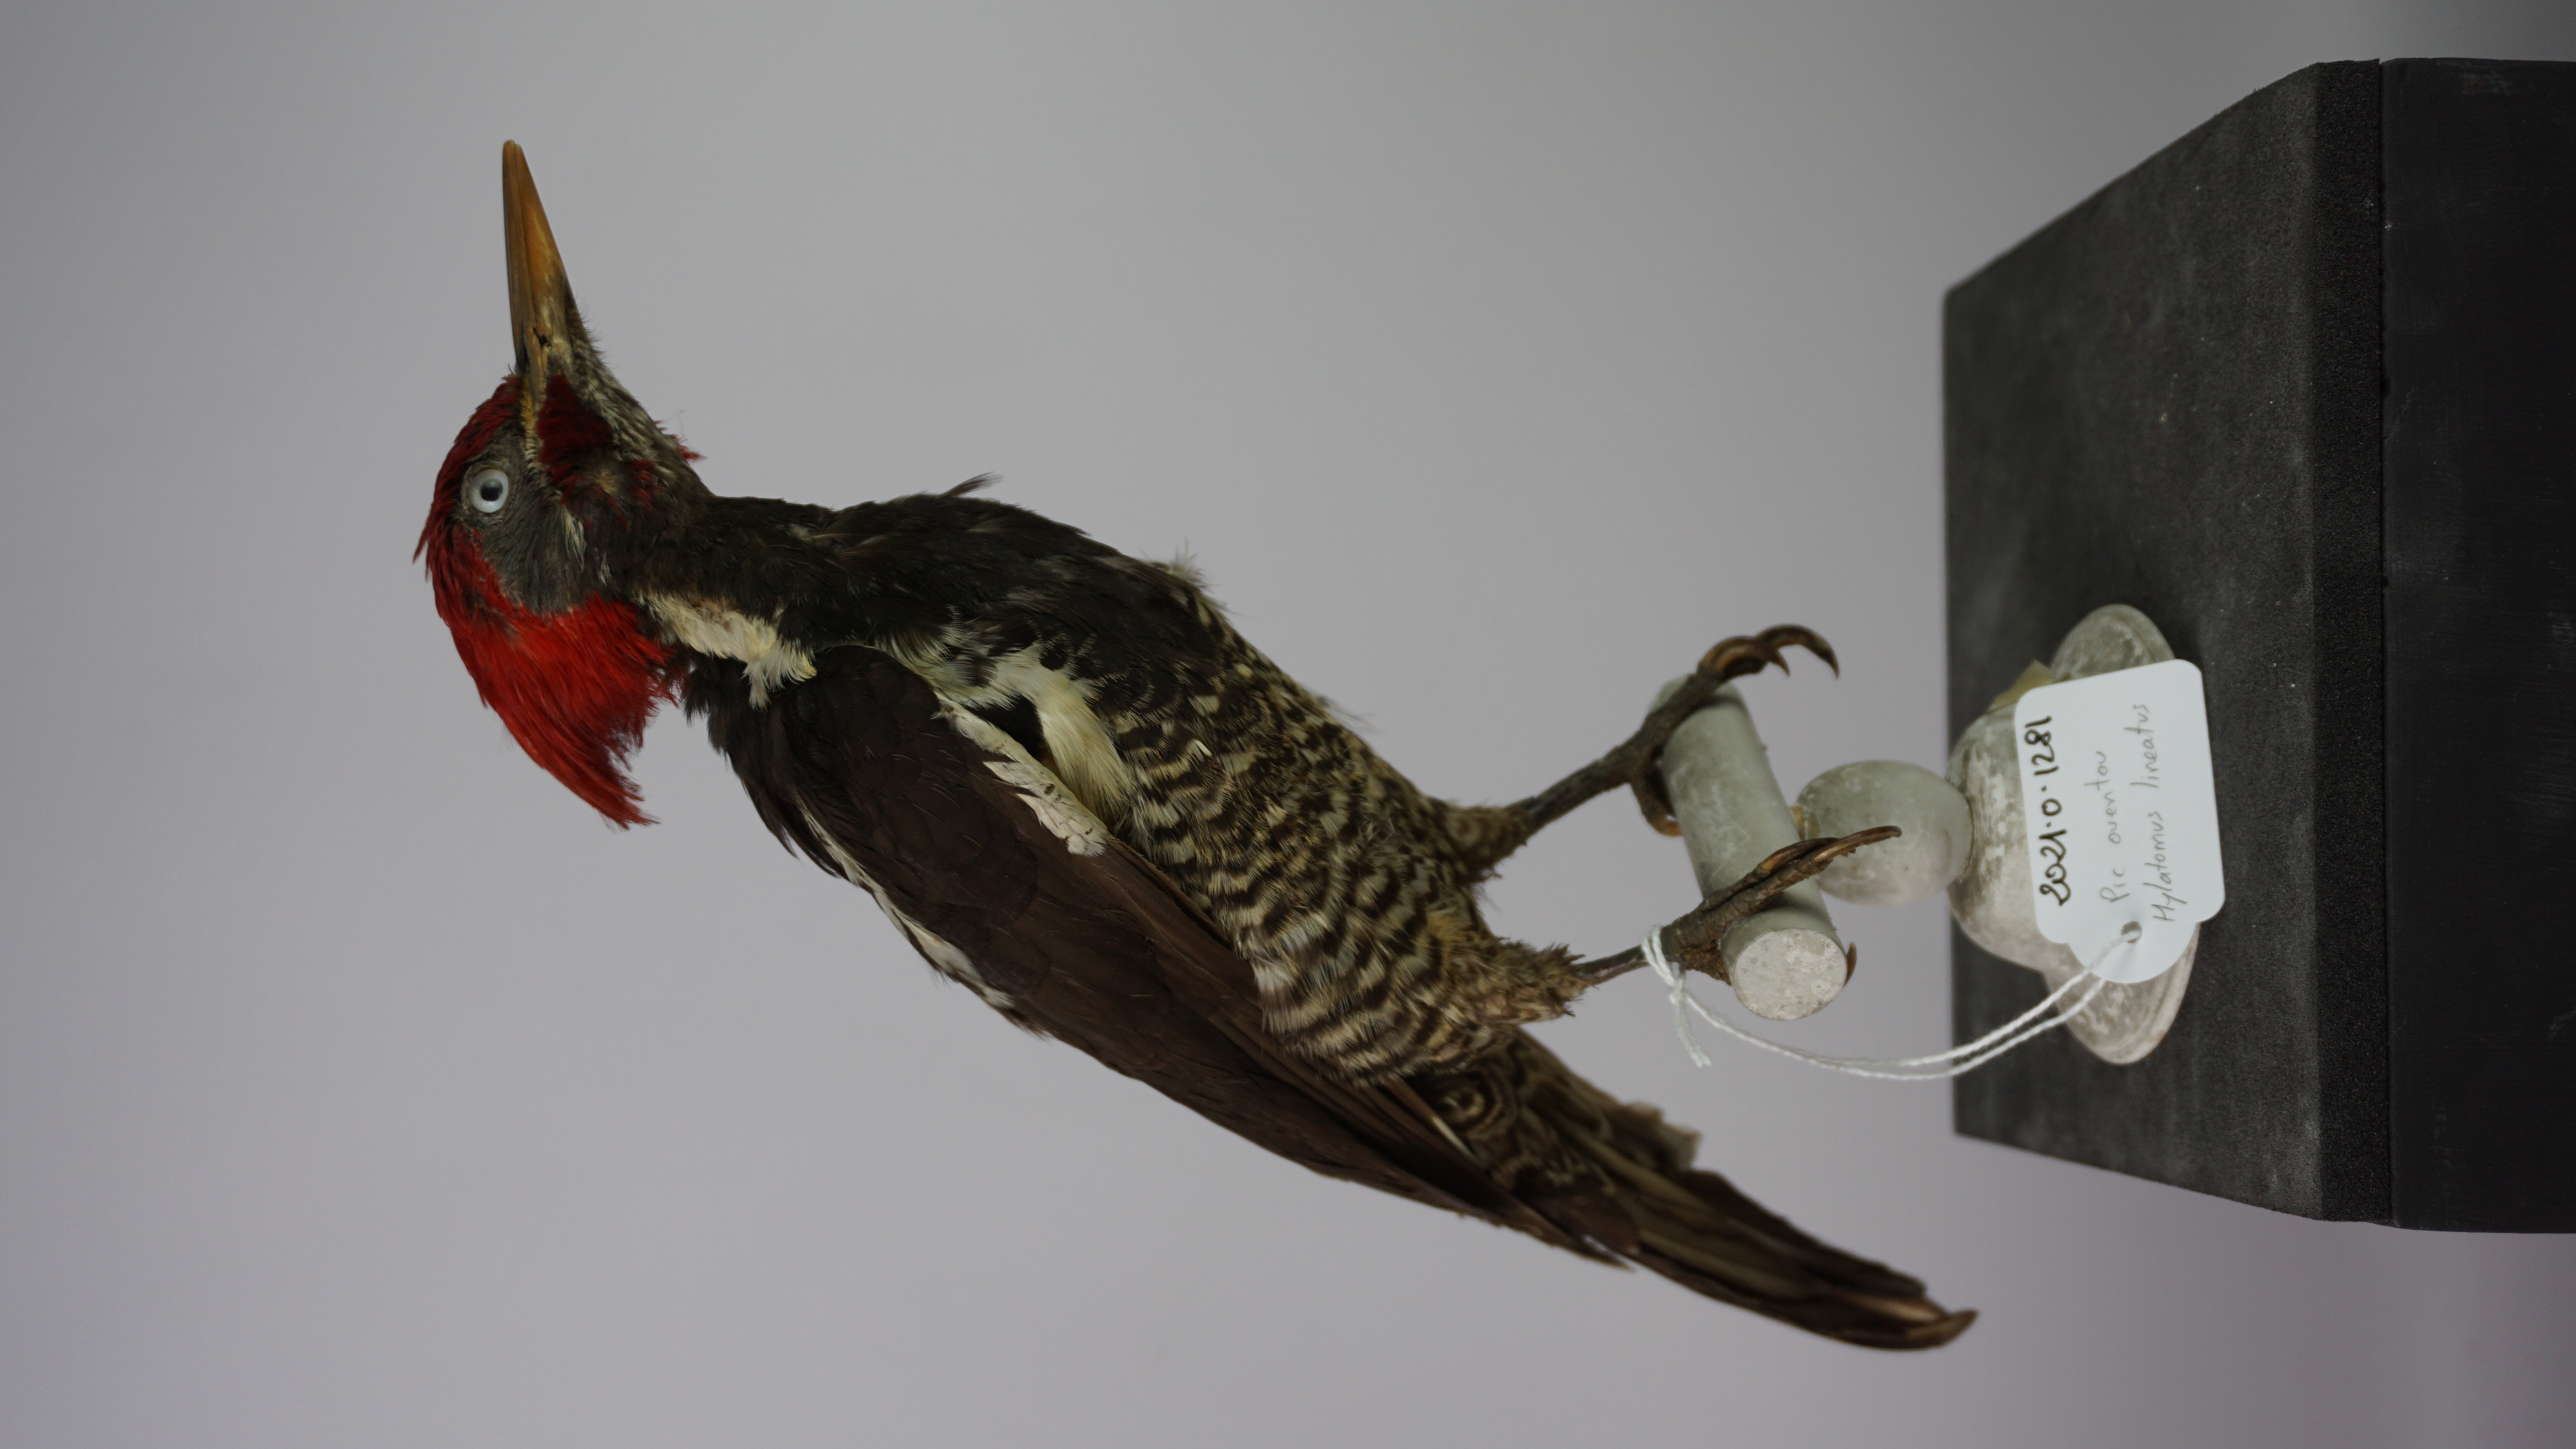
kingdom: Animalia
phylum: Chordata
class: Aves
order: Piciformes
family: Picidae
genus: Dryocopus
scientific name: Dryocopus lineatus
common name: Lineated woodpecker
